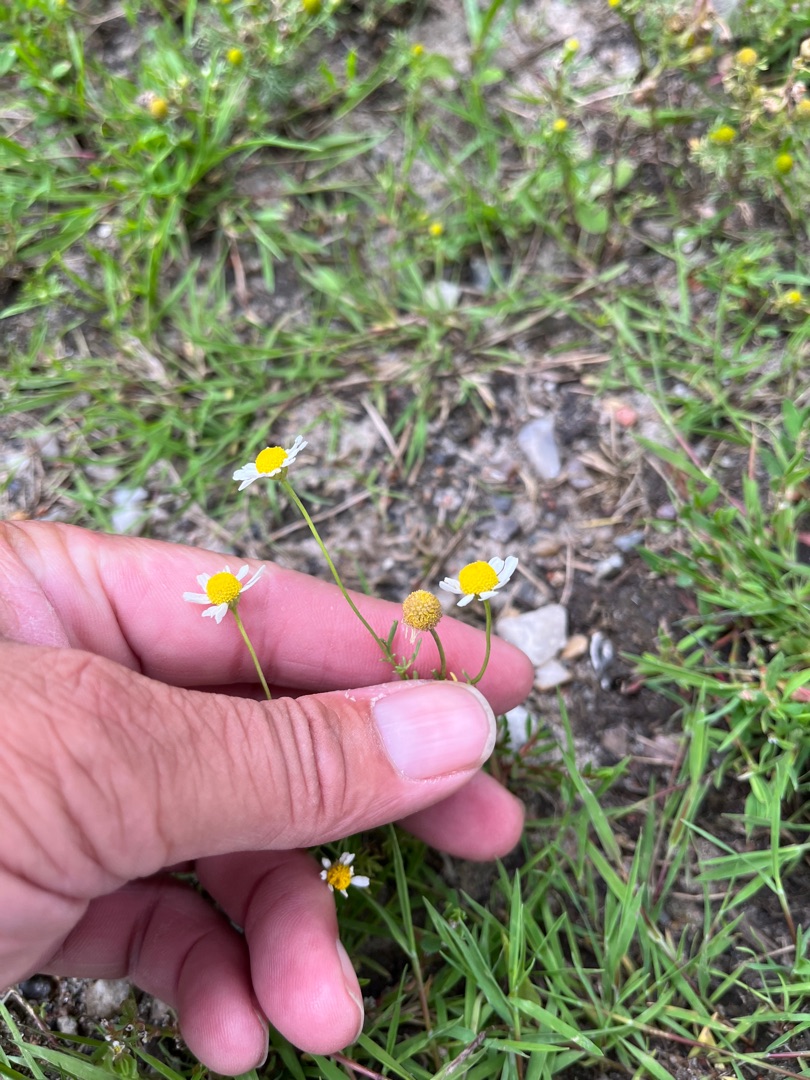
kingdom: Plantae
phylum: Tracheophyta
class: Magnoliopsida
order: Asterales
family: Asteraceae
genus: Matricaria
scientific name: Matricaria chamomilla
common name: Vellugtende kamille
